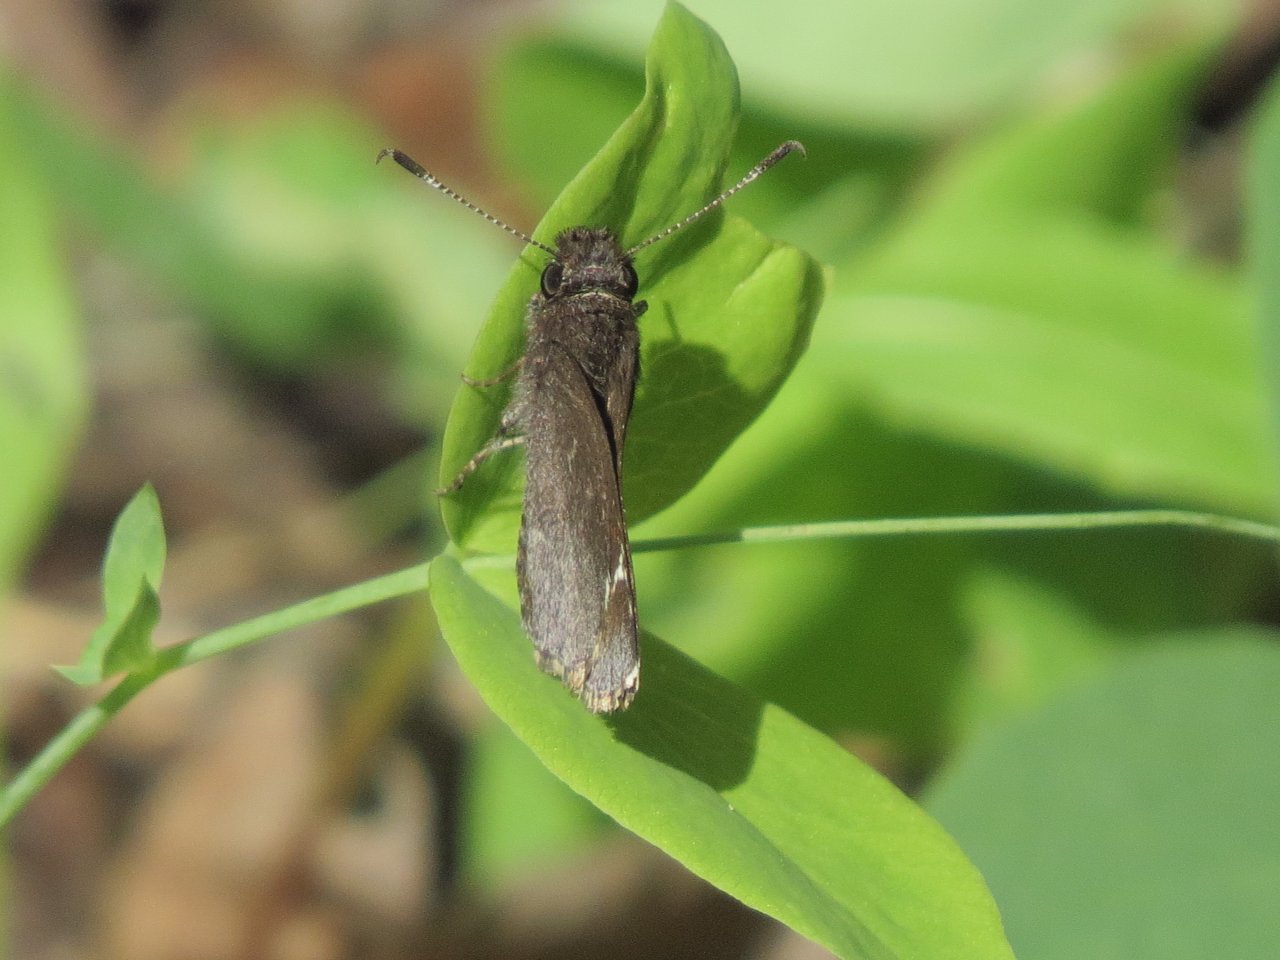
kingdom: Animalia
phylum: Arthropoda
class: Insecta
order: Lepidoptera
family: Hesperiidae
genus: Mastor
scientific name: Mastor vialis
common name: Common Roadside-Skipper
